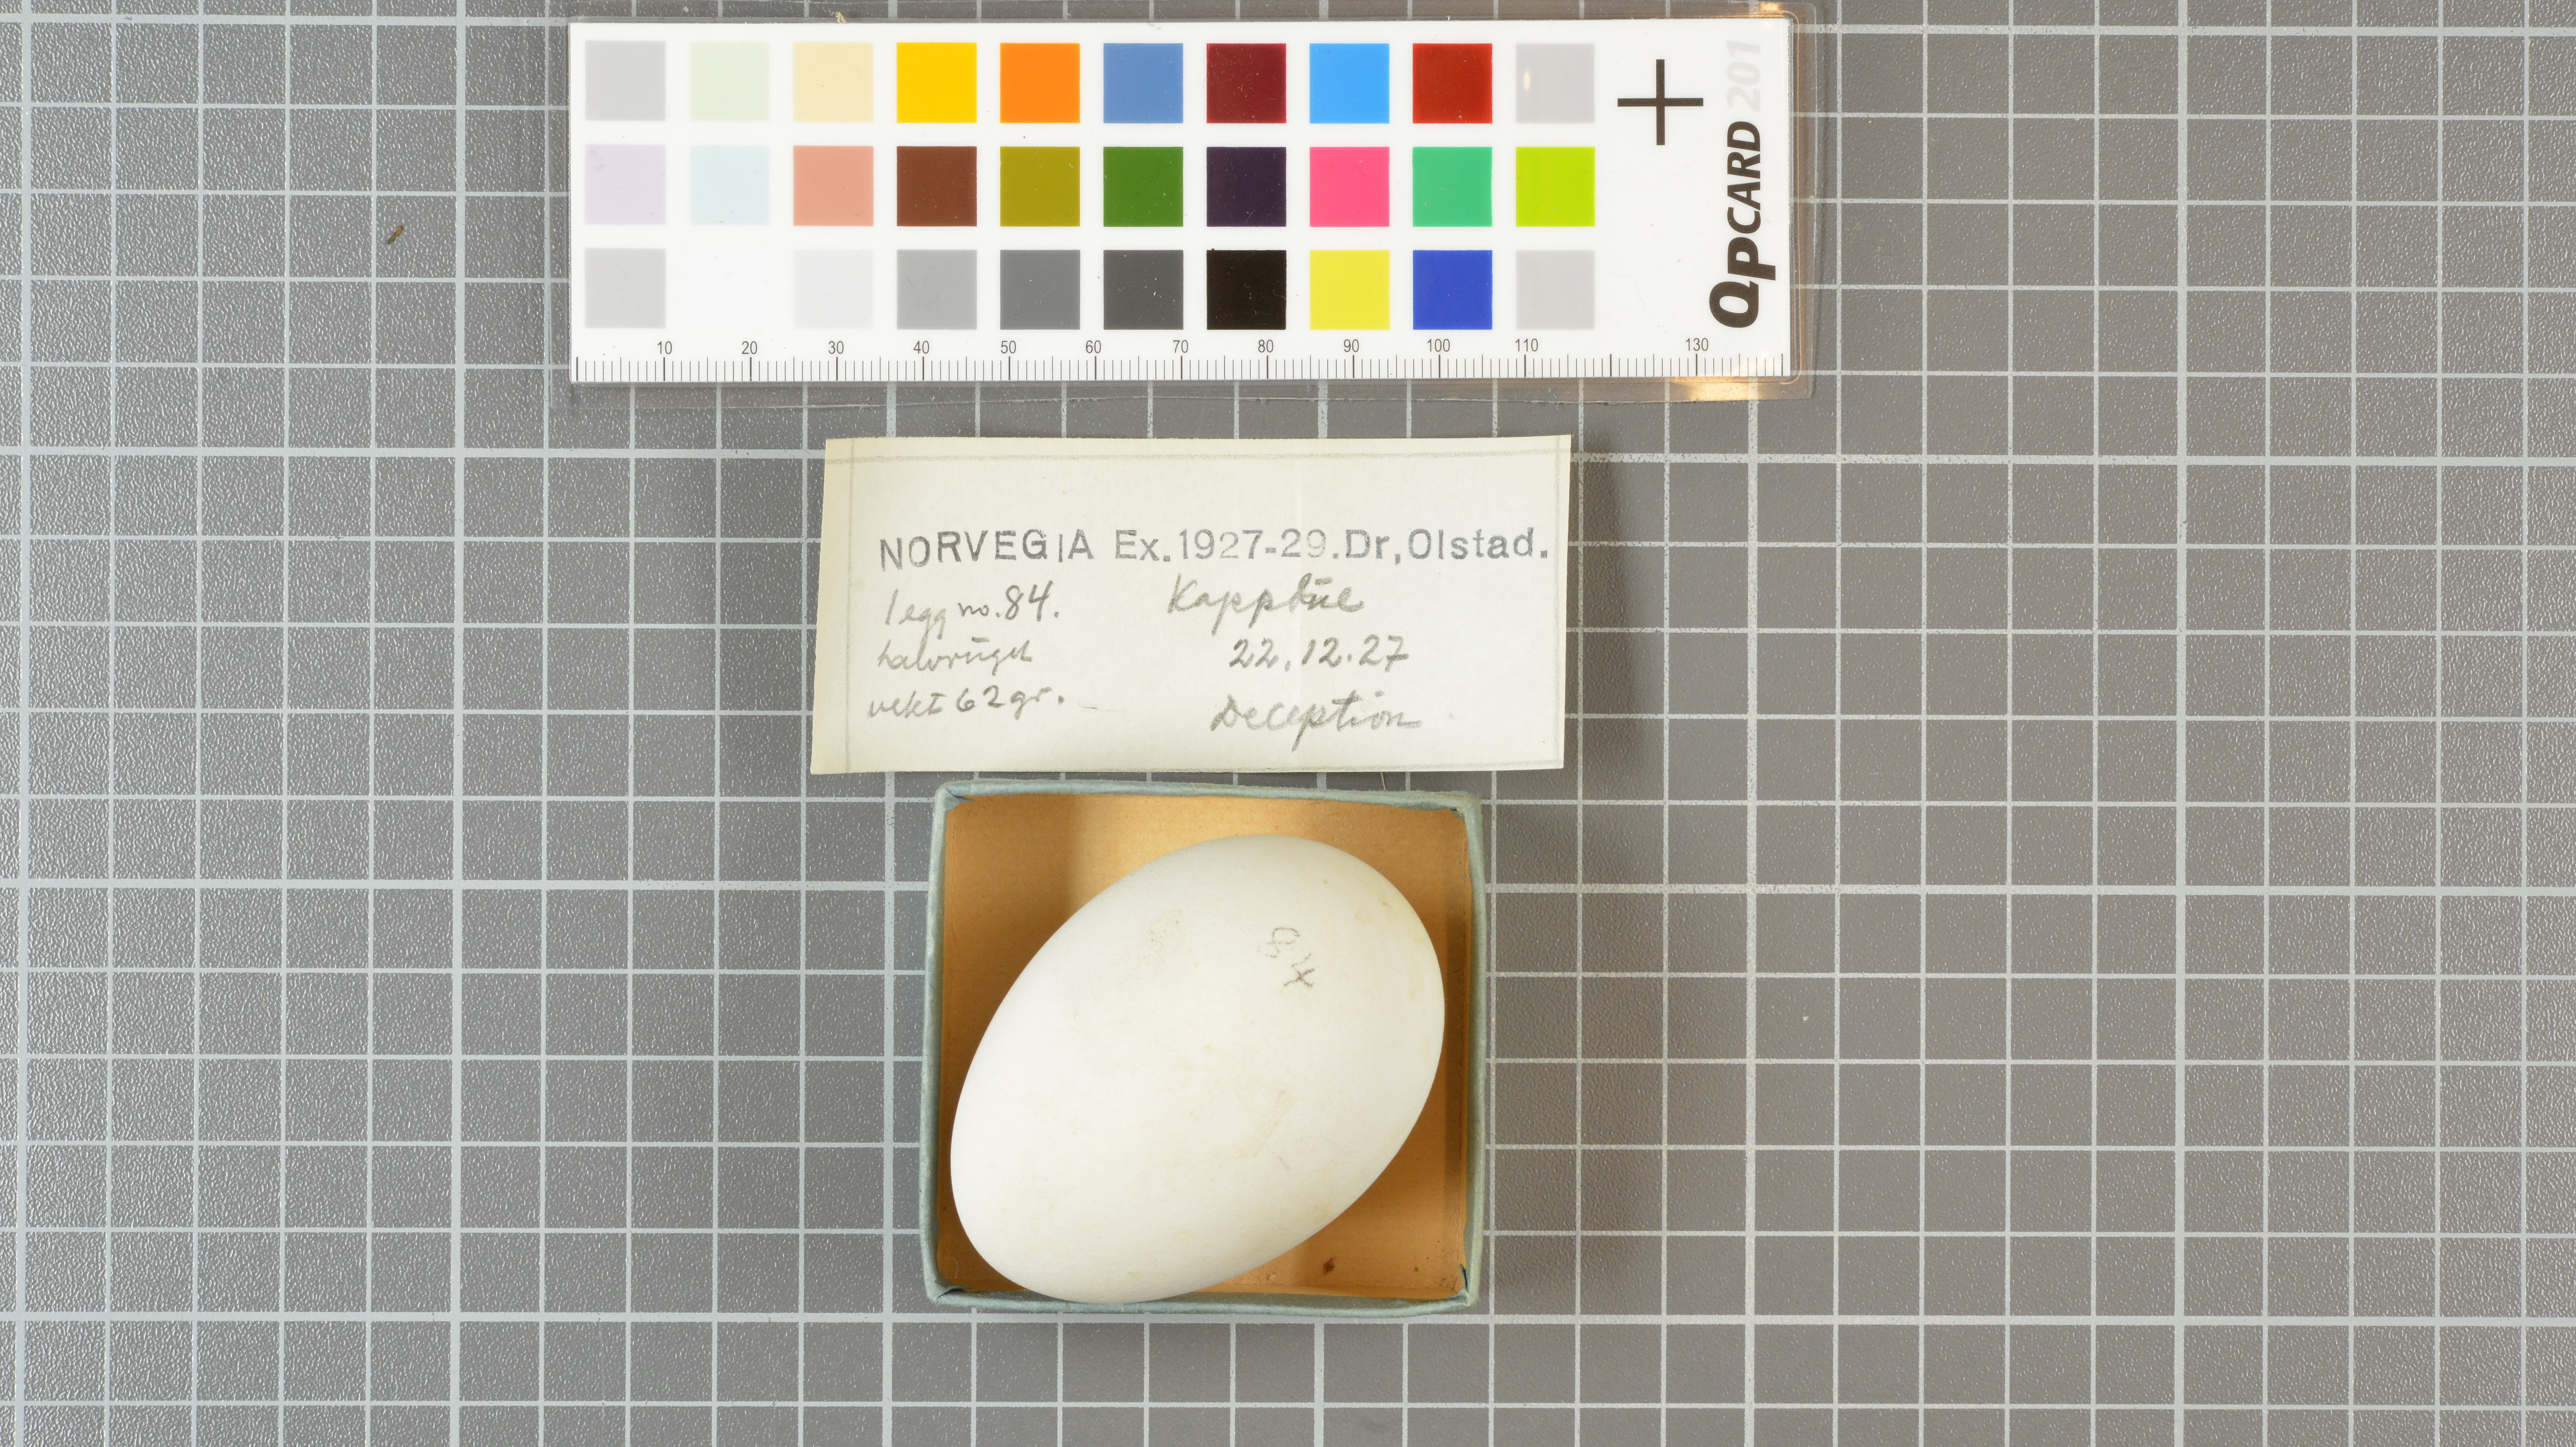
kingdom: Animalia
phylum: Chordata
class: Aves
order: Procellariiformes
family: Procellariidae
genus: Daption
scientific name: Daption capense
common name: Cape petrel
